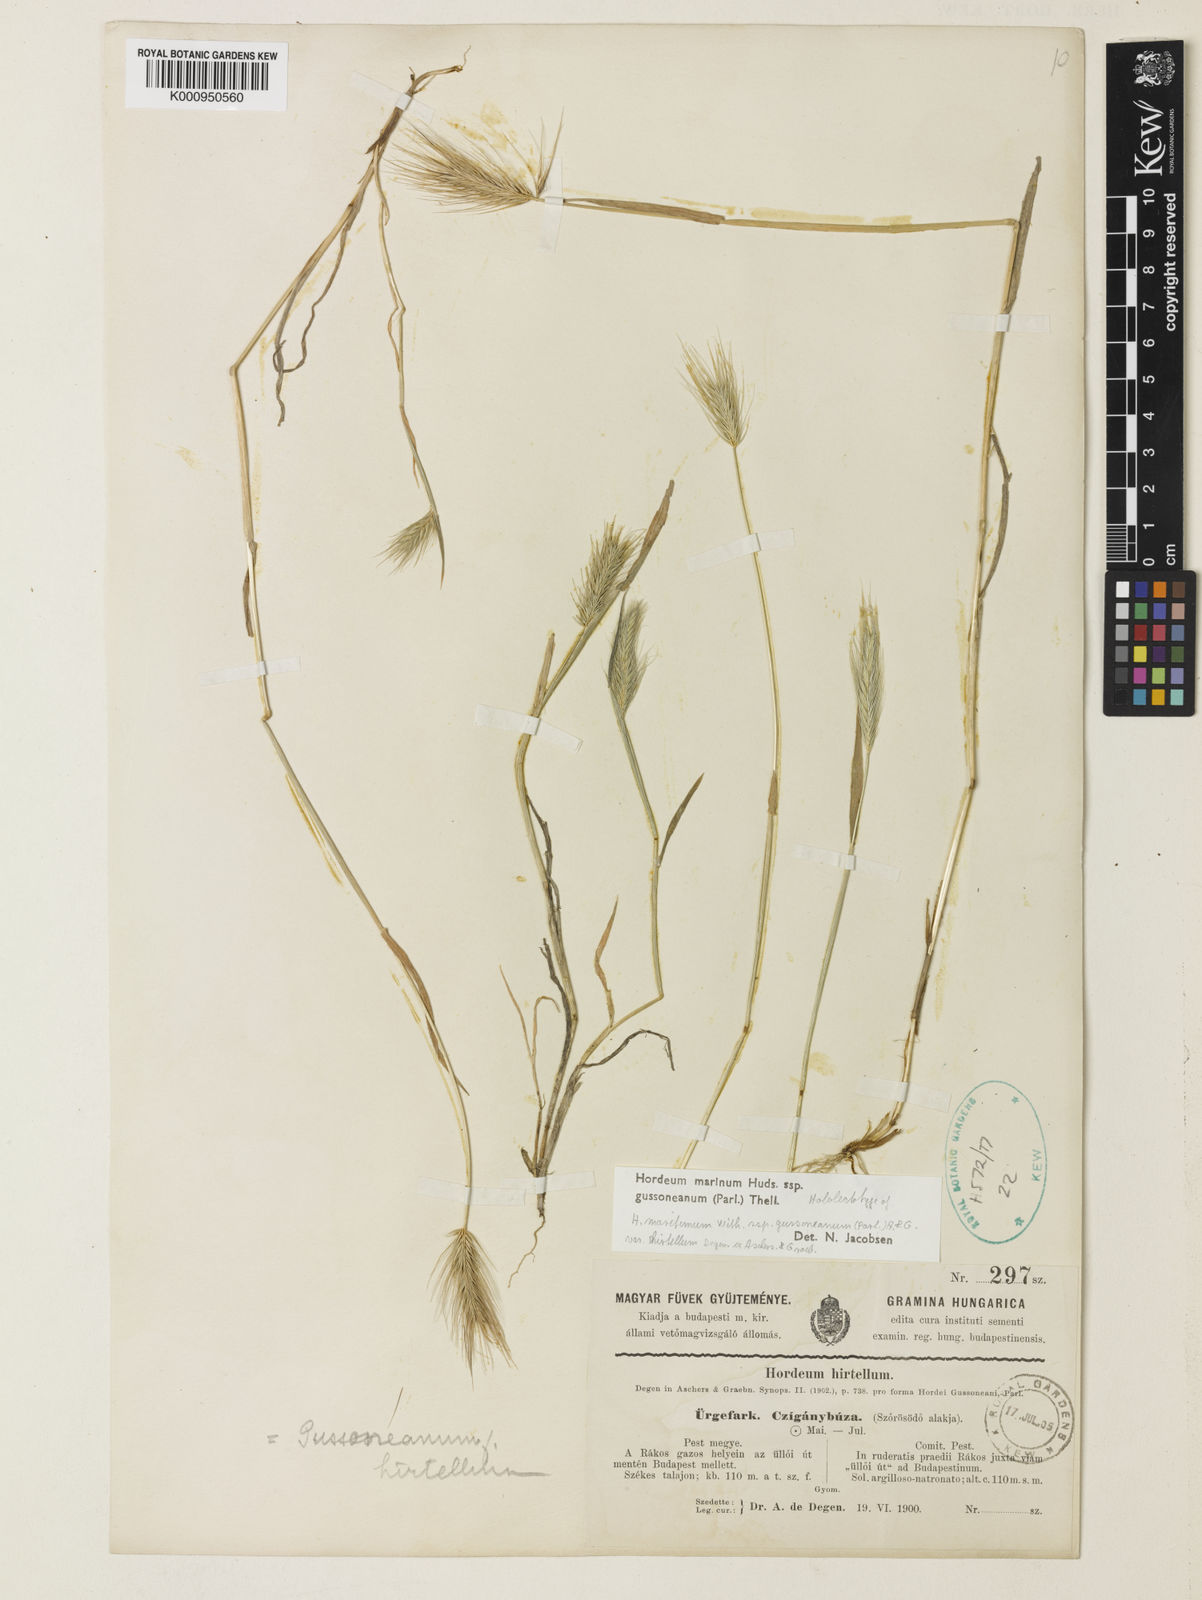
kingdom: Plantae
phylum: Tracheophyta
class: Liliopsida
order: Poales
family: Poaceae
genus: Hordeum
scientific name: Hordeum marinum
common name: Sea barley
